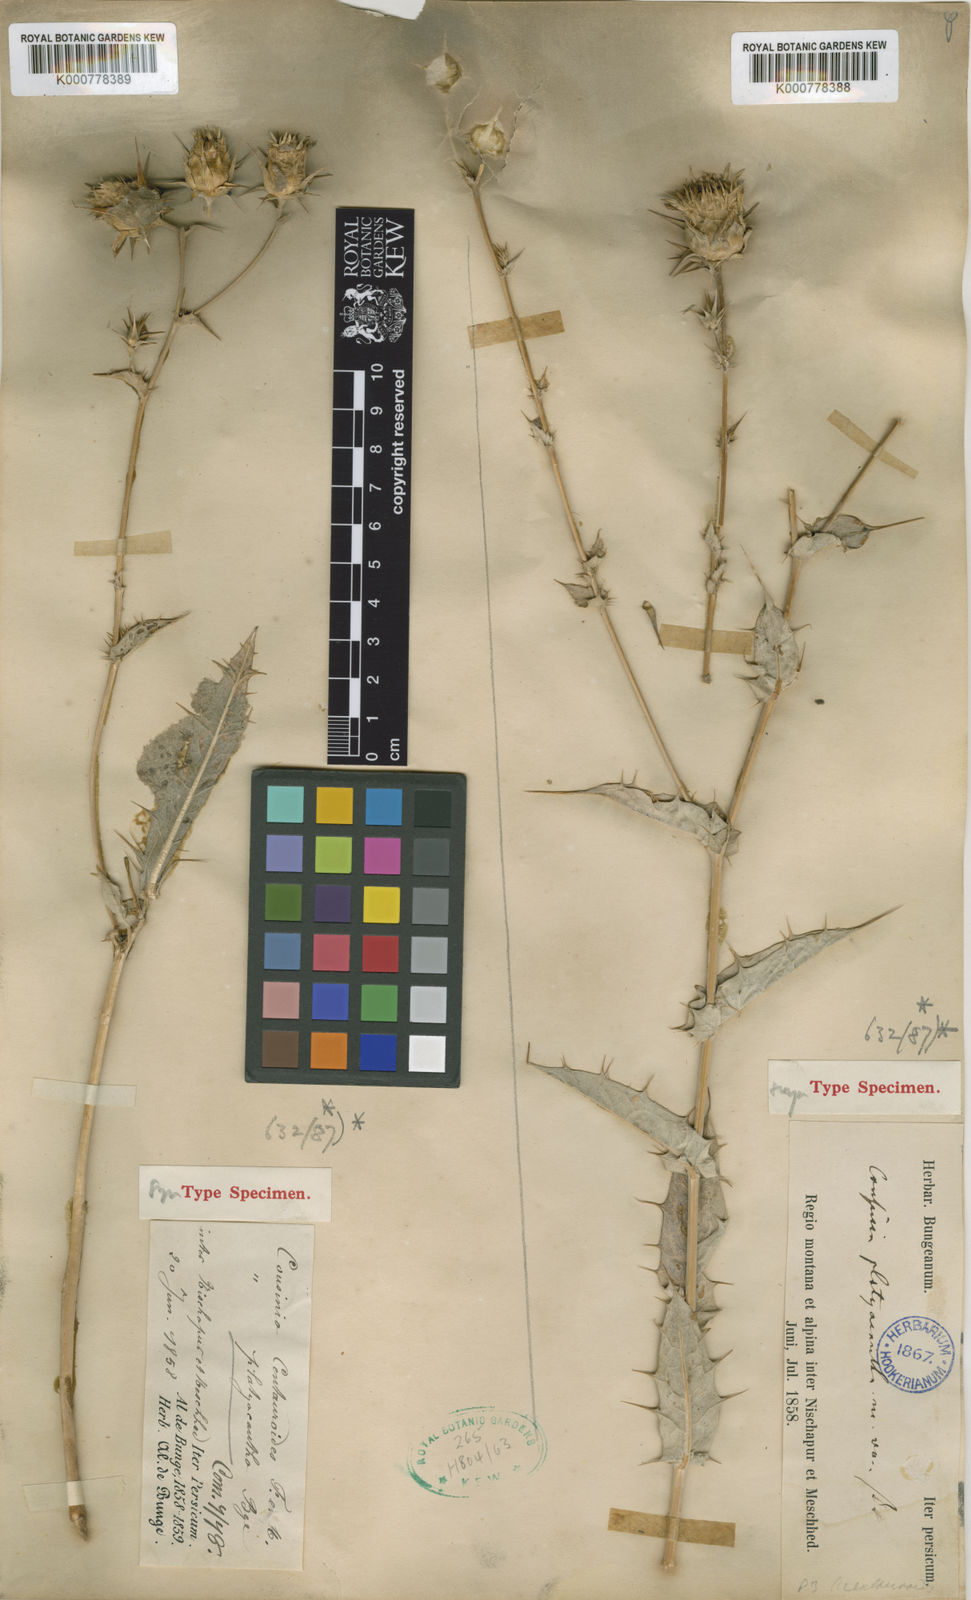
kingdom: Plantae
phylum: Tracheophyta
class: Magnoliopsida
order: Asterales
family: Asteraceae
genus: Cousinia
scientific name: Cousinia platyacantha
